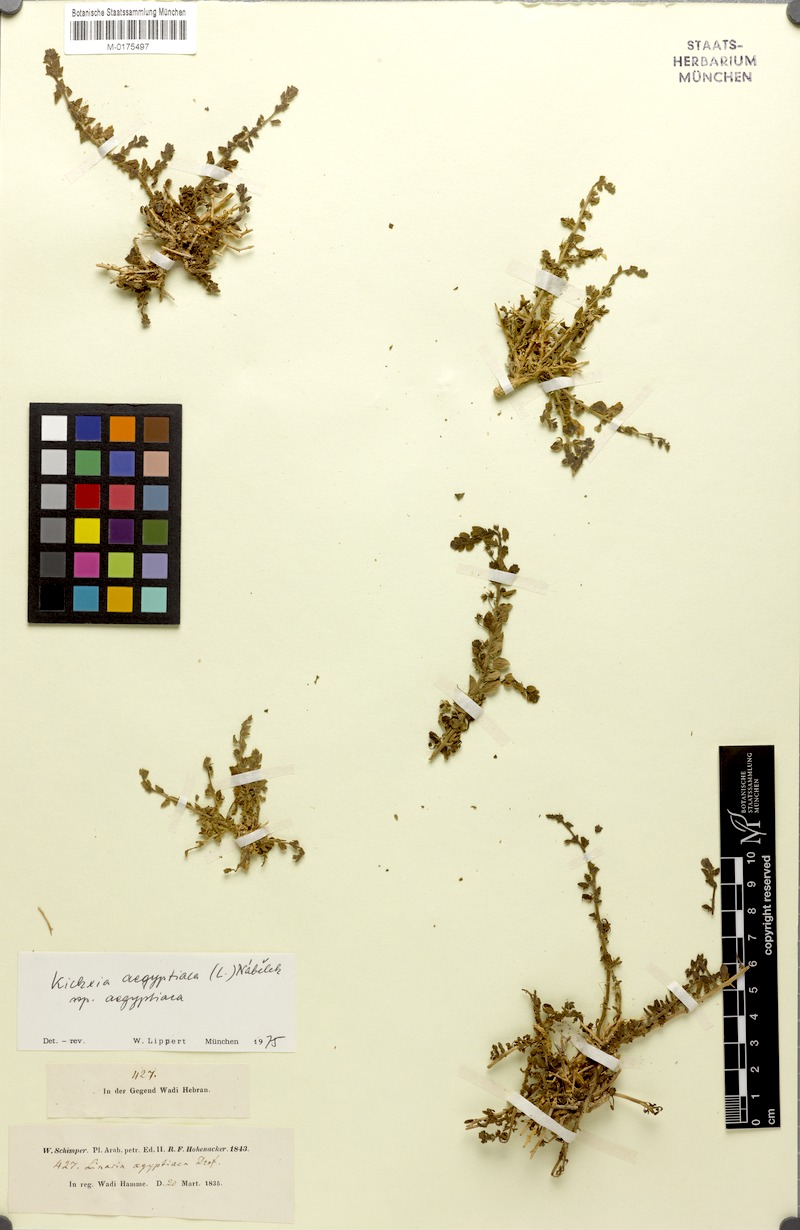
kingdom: Plantae
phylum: Tracheophyta
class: Magnoliopsida
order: Lamiales
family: Plantaginaceae
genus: Kickxia
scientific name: Kickxia aegyptiaca
